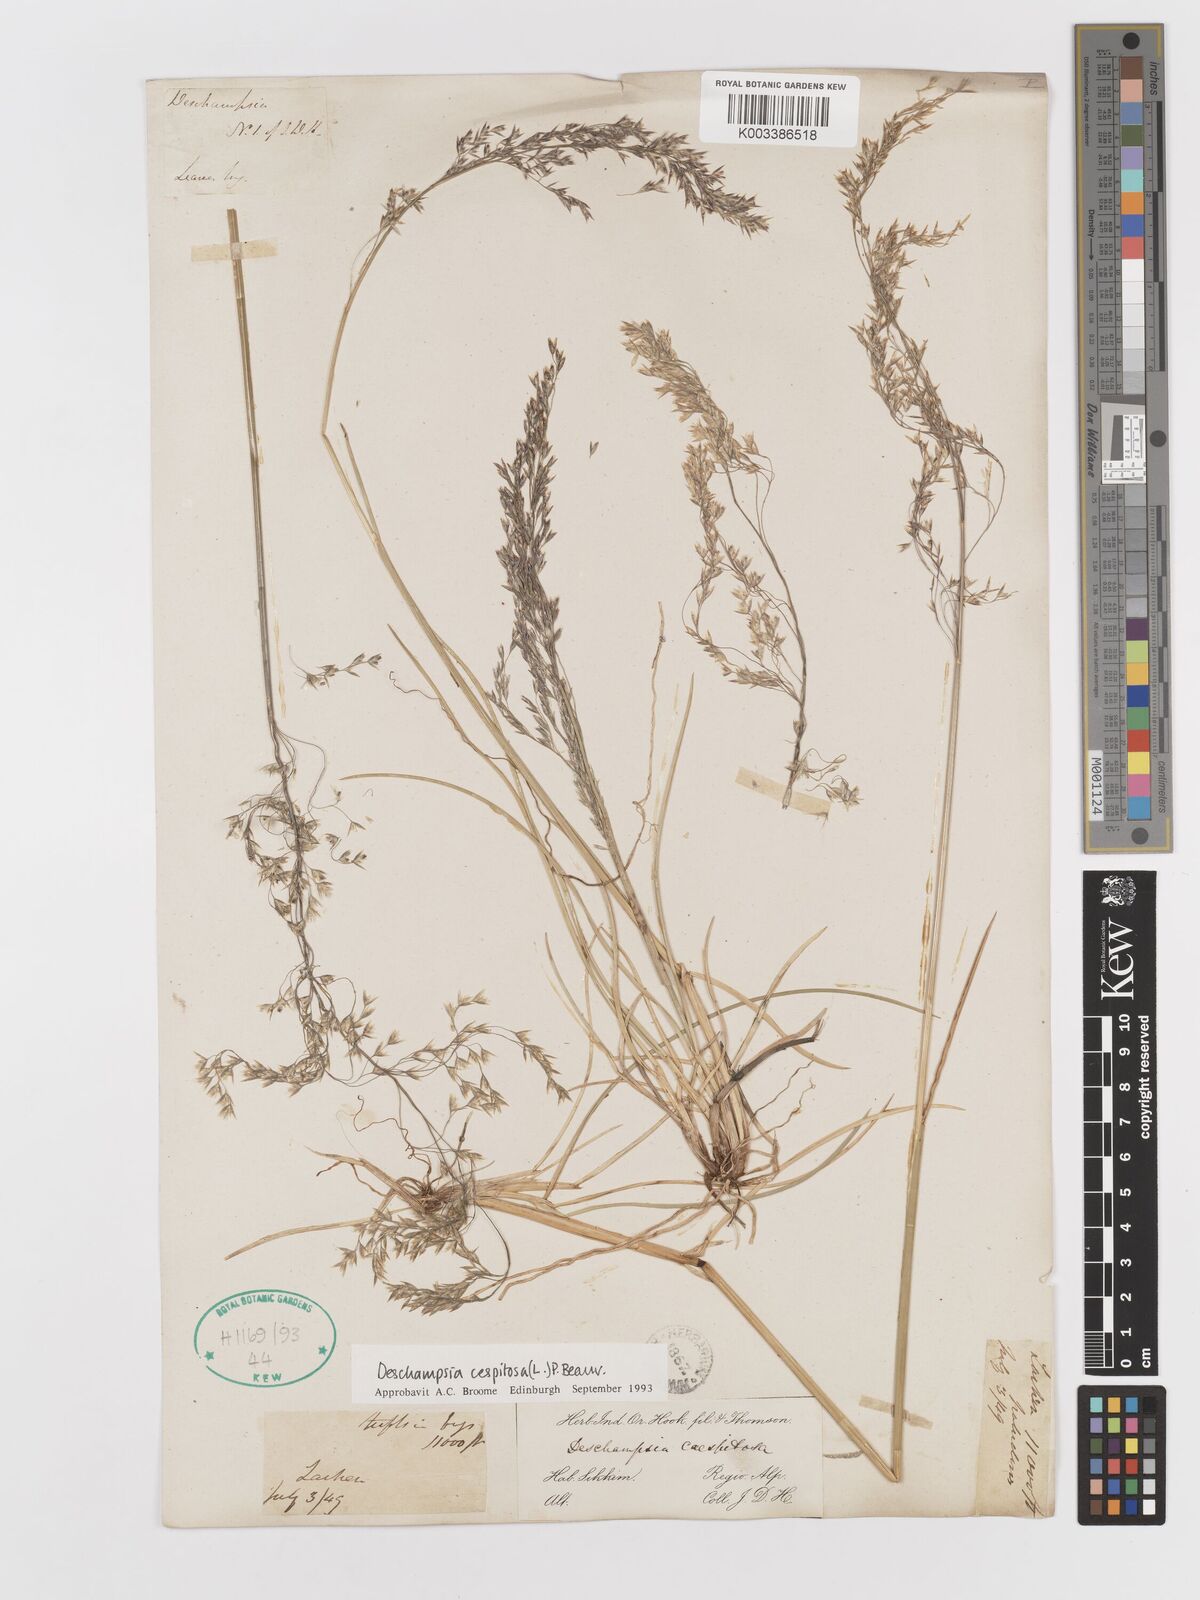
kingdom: Plantae
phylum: Tracheophyta
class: Liliopsida
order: Poales
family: Poaceae
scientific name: Poaceae
